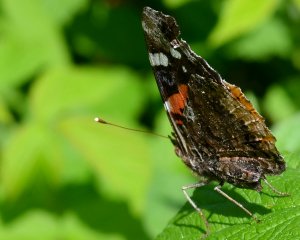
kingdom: Animalia
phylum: Arthropoda
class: Insecta
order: Lepidoptera
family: Nymphalidae
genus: Vanessa
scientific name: Vanessa atalanta
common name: Red Admiral
